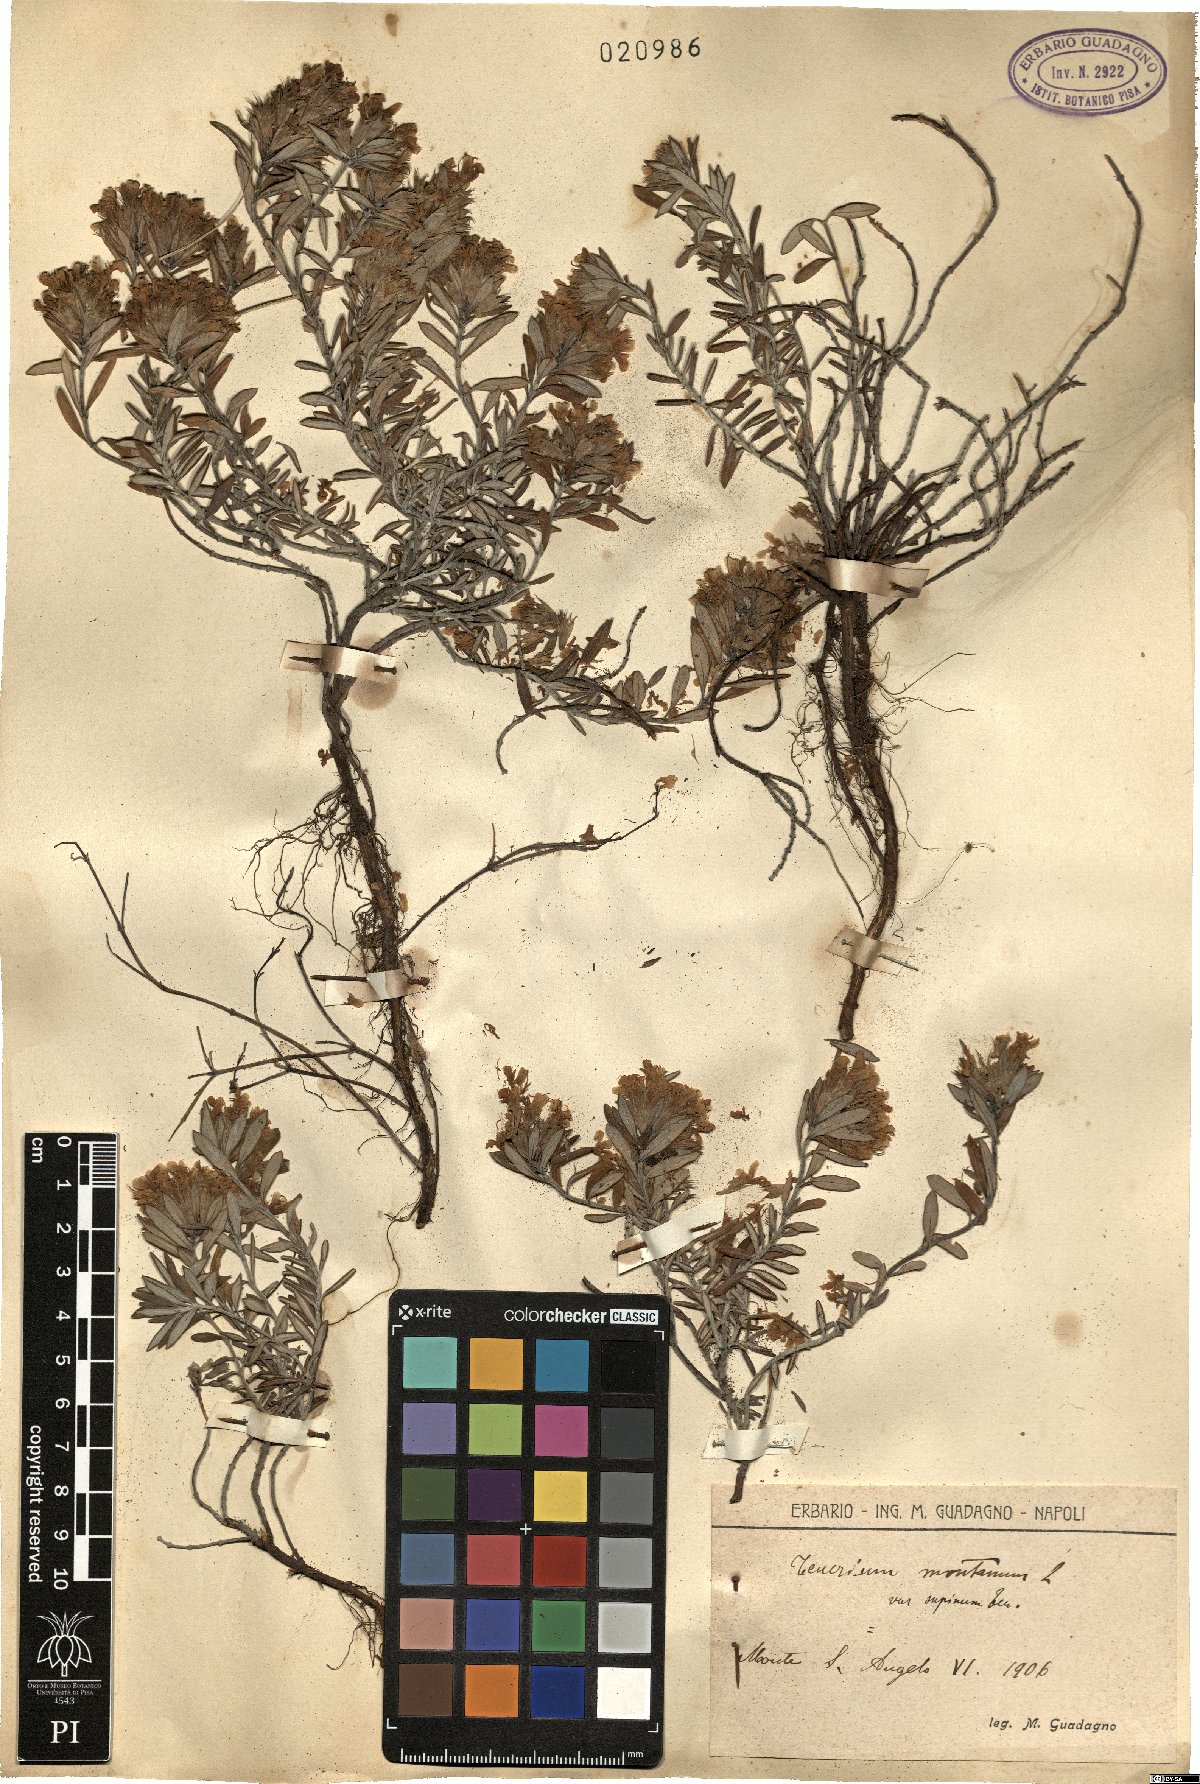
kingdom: Plantae
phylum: Tracheophyta
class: Magnoliopsida
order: Lamiales
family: Lamiaceae
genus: Teucrium
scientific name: Teucrium montanum
